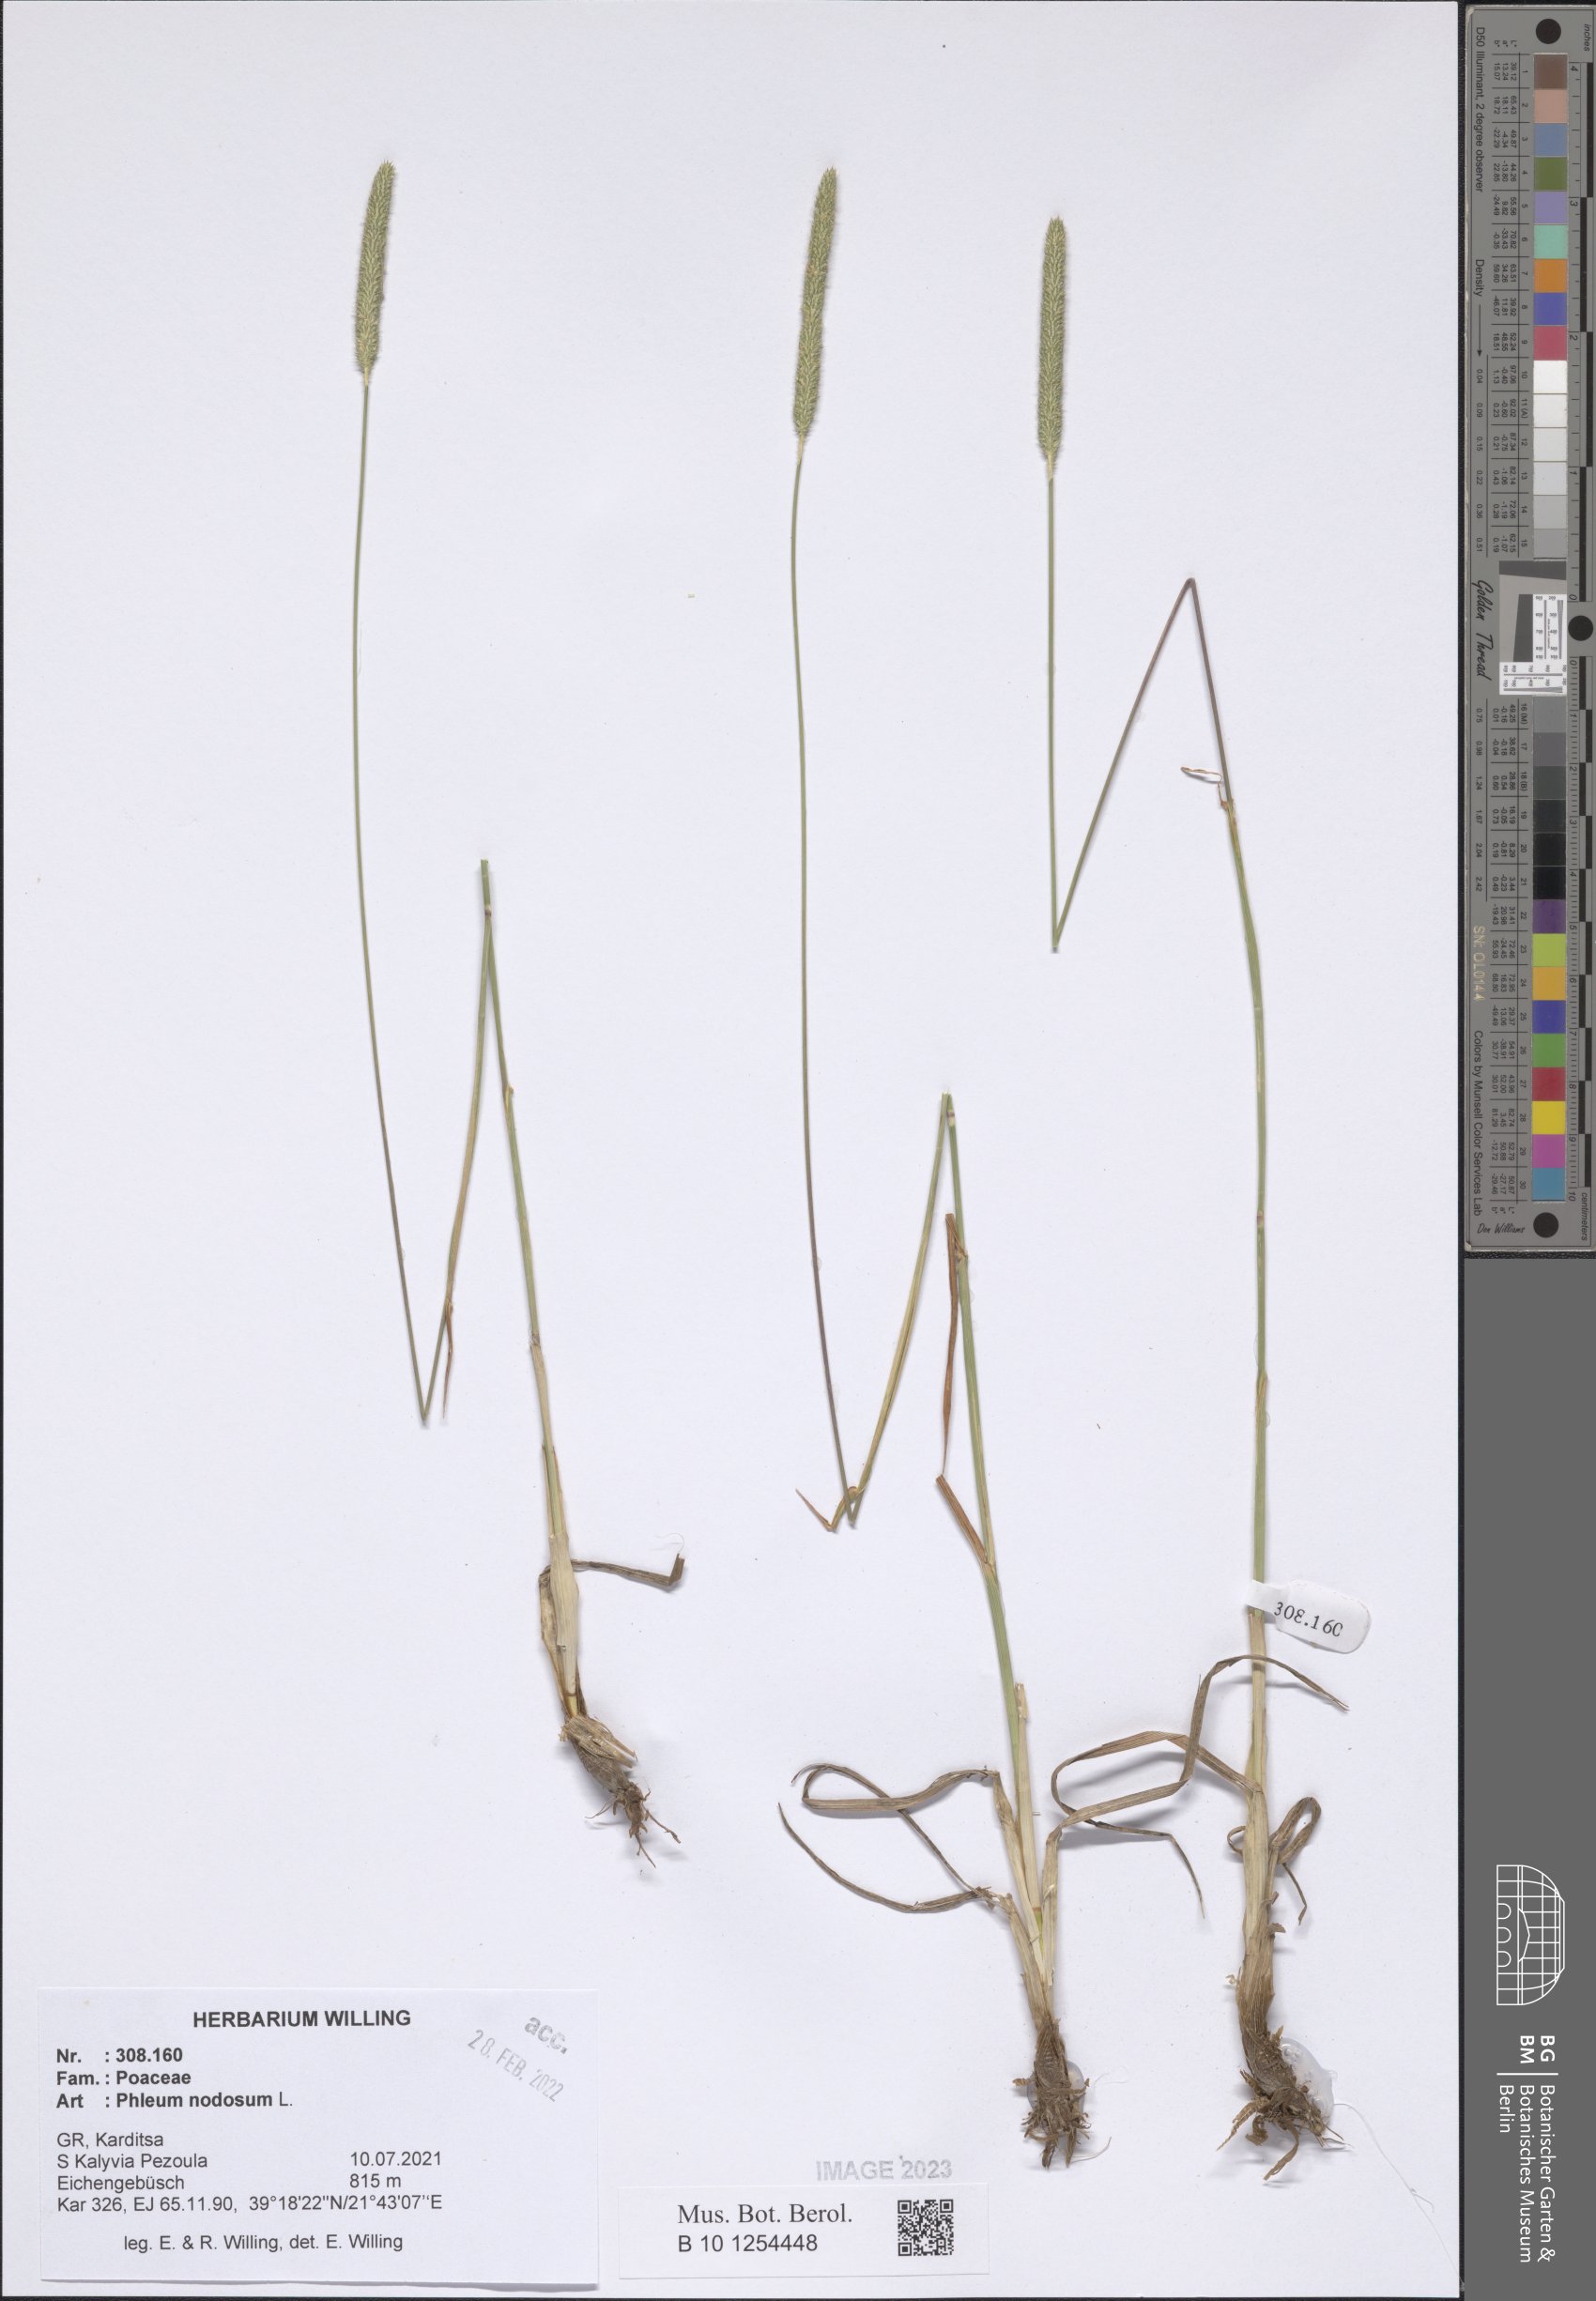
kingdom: Plantae
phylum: Tracheophyta
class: Liliopsida
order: Poales
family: Poaceae
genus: Phleum
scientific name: Phleum pratense
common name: Timothy grass
